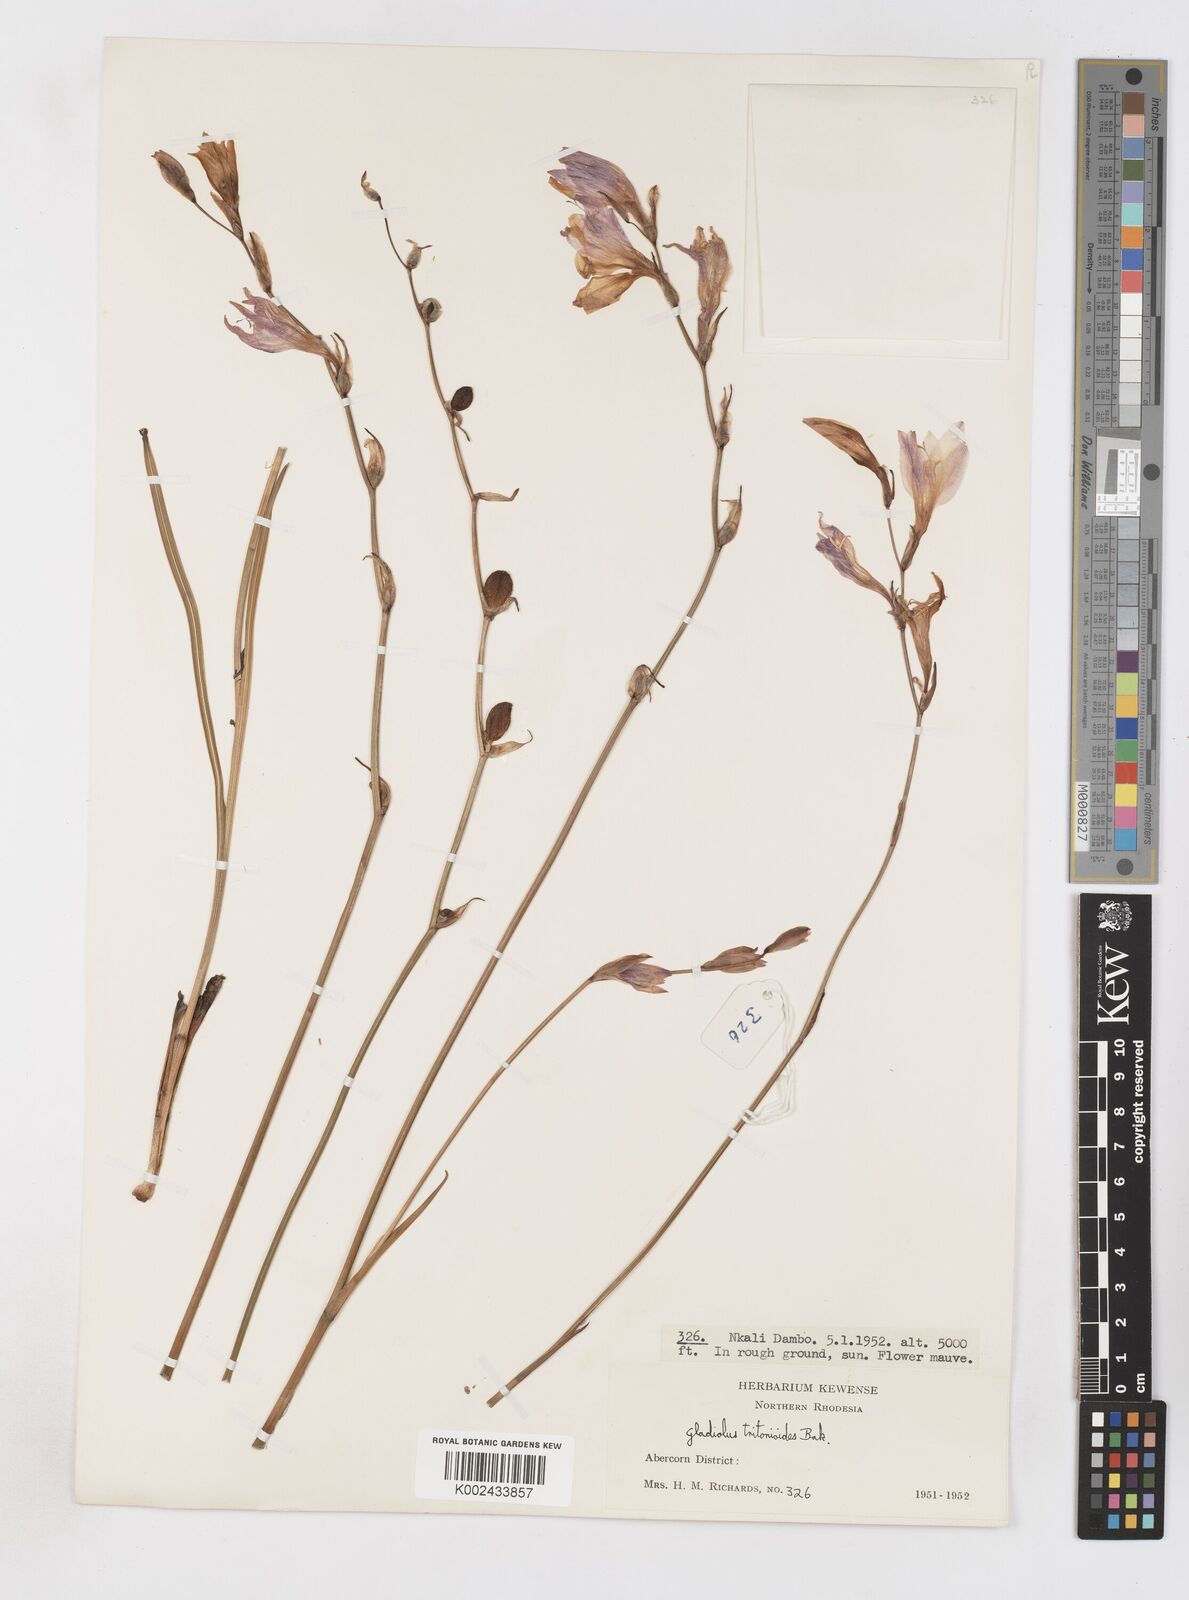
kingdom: Plantae
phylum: Tracheophyta
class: Liliopsida
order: Asparagales
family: Iridaceae
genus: Gladiolus
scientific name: Gladiolus laxiflorus
